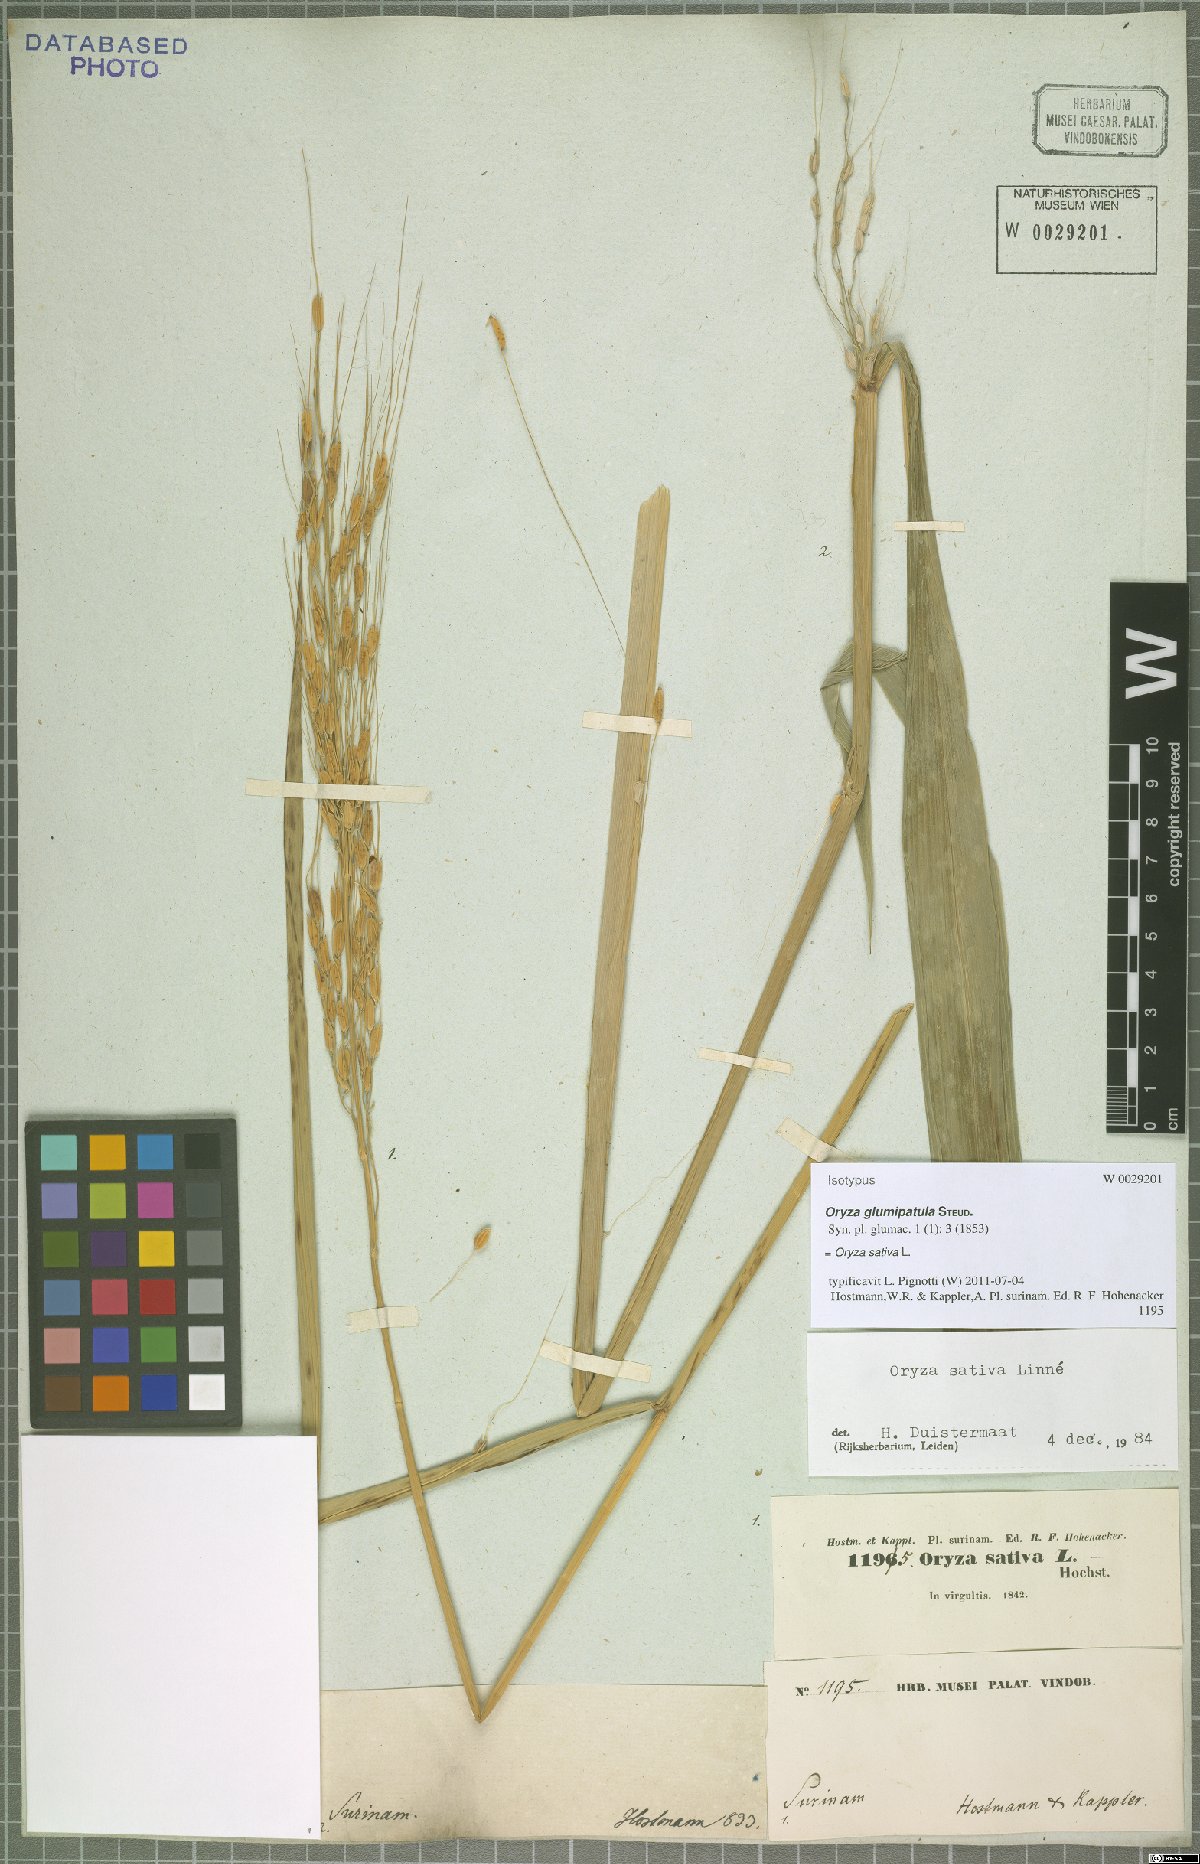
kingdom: Plantae
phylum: Tracheophyta
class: Liliopsida
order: Poales
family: Poaceae
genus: Oryza
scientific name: Oryza sativa
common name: Rice
